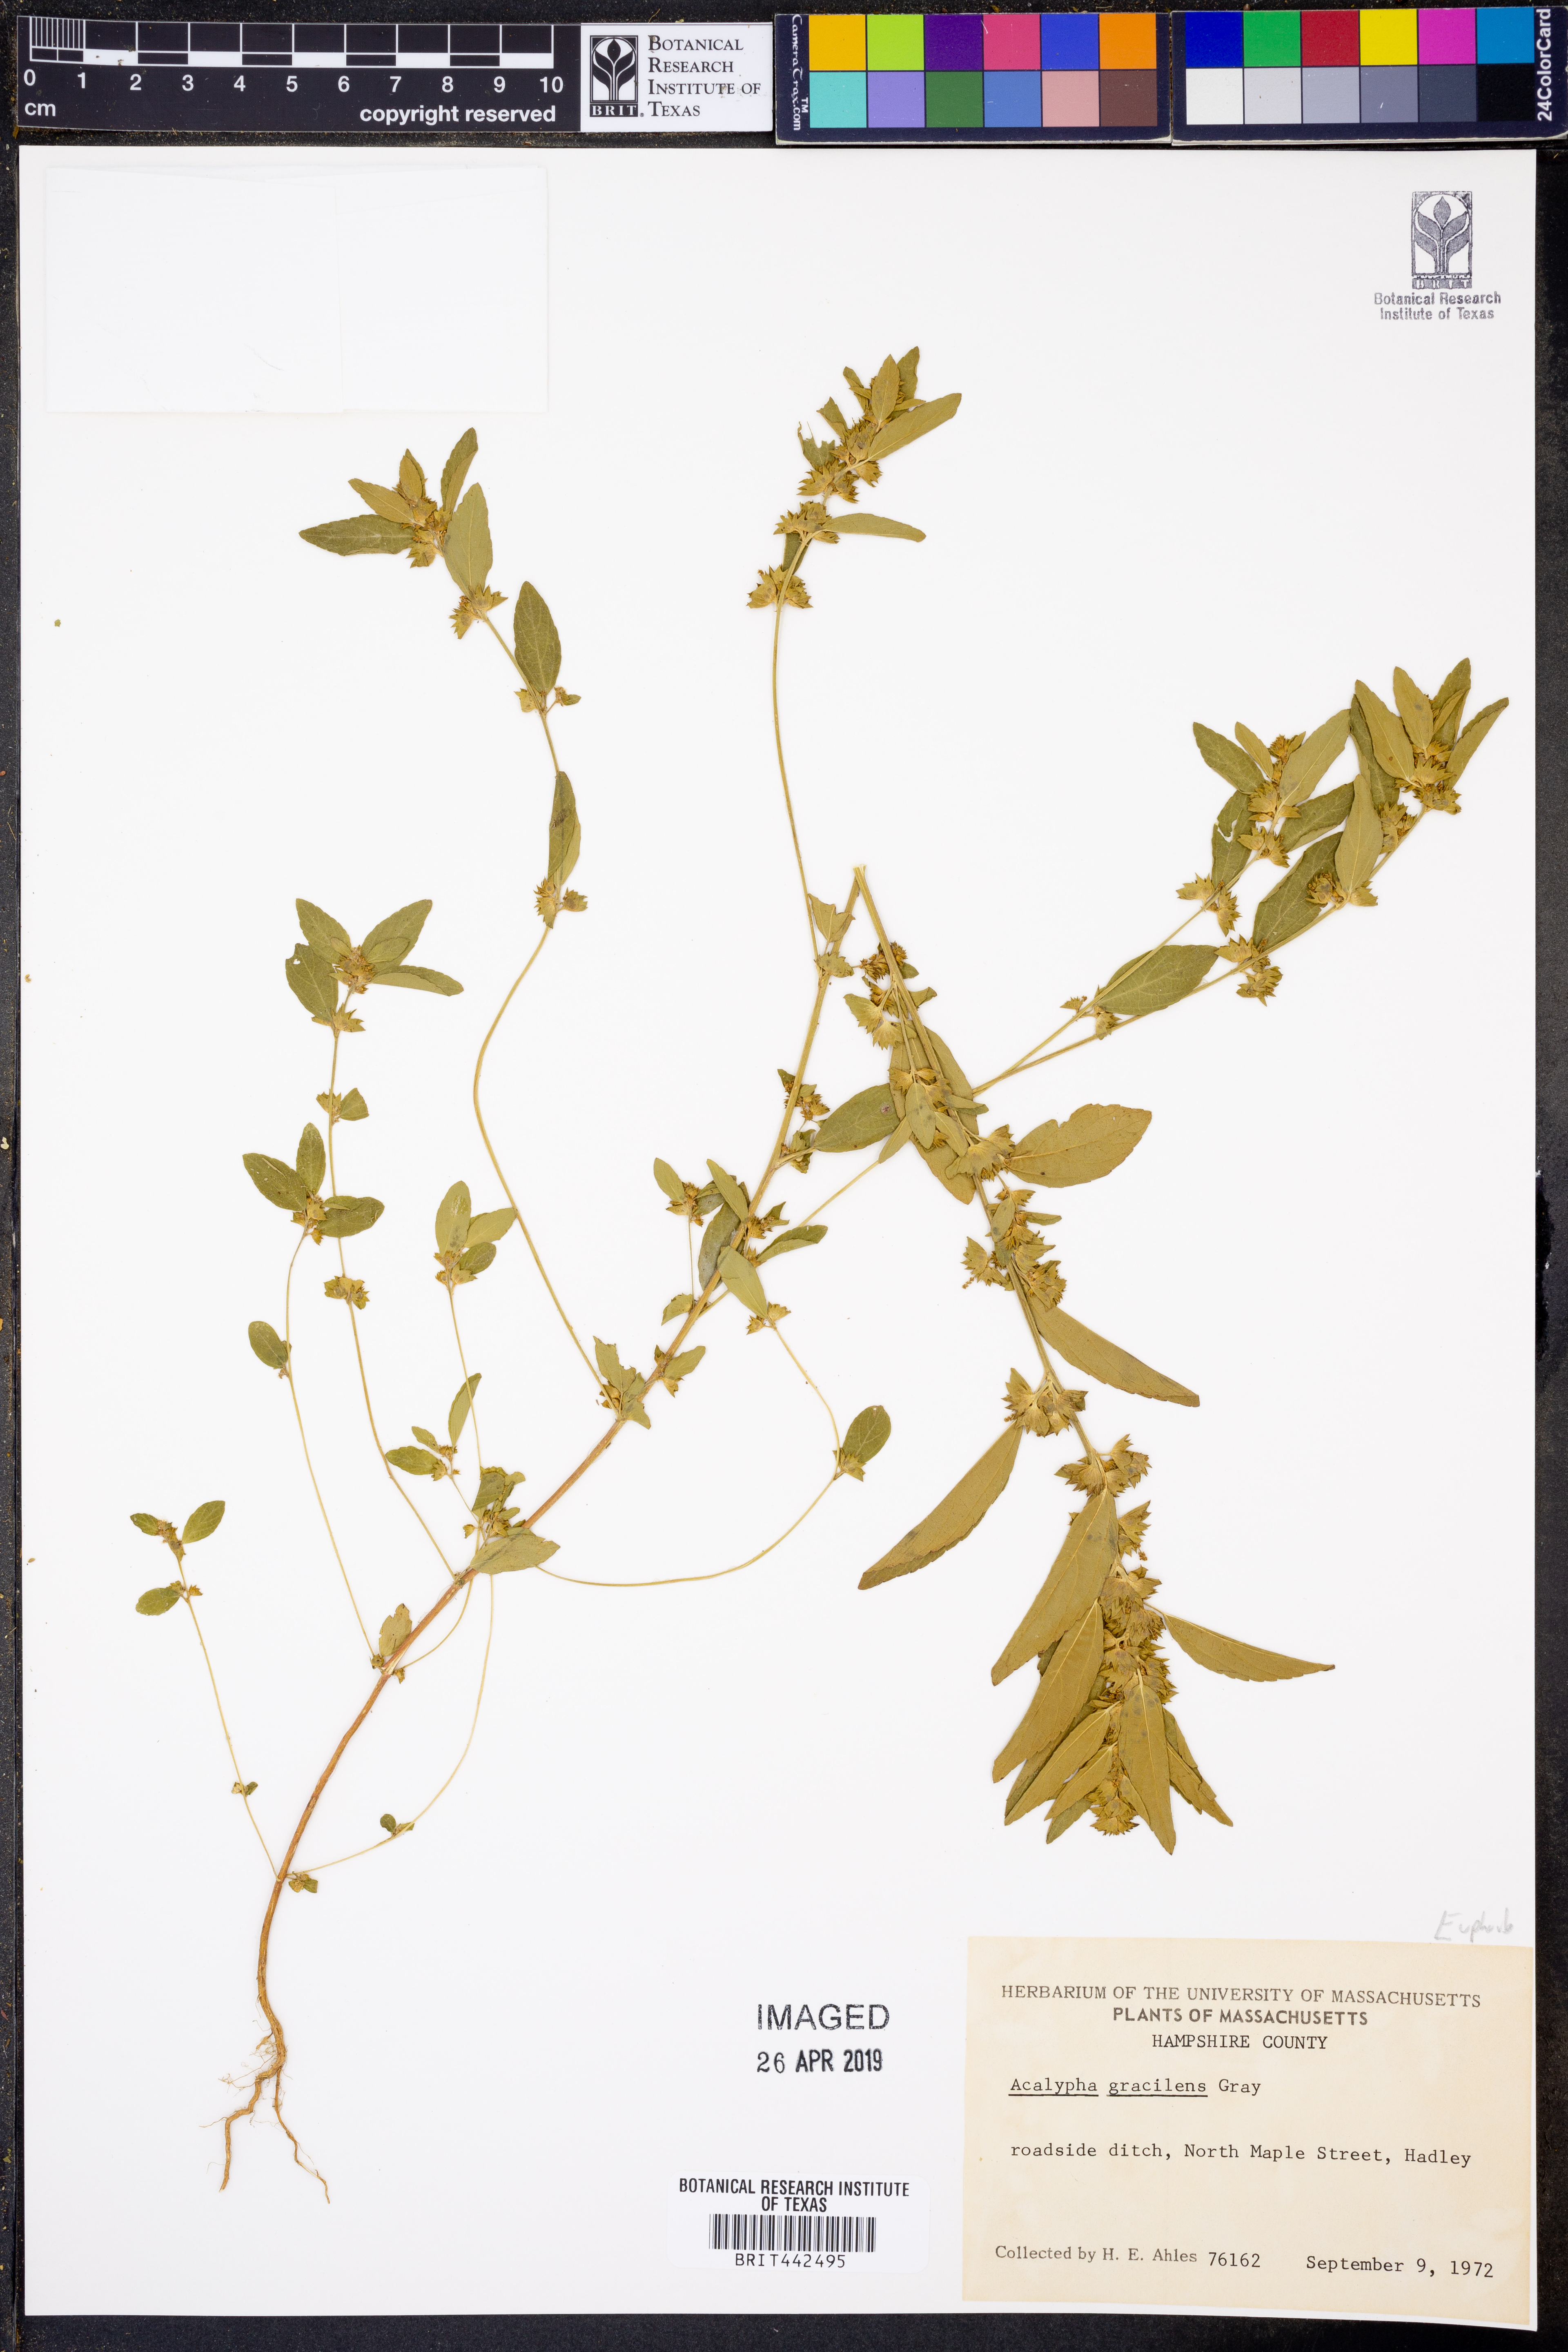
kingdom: Plantae
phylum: Tracheophyta
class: Magnoliopsida
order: Malpighiales
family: Euphorbiaceae
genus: Acalypha
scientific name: Acalypha gracilens
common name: Slender three-seeded mercury
